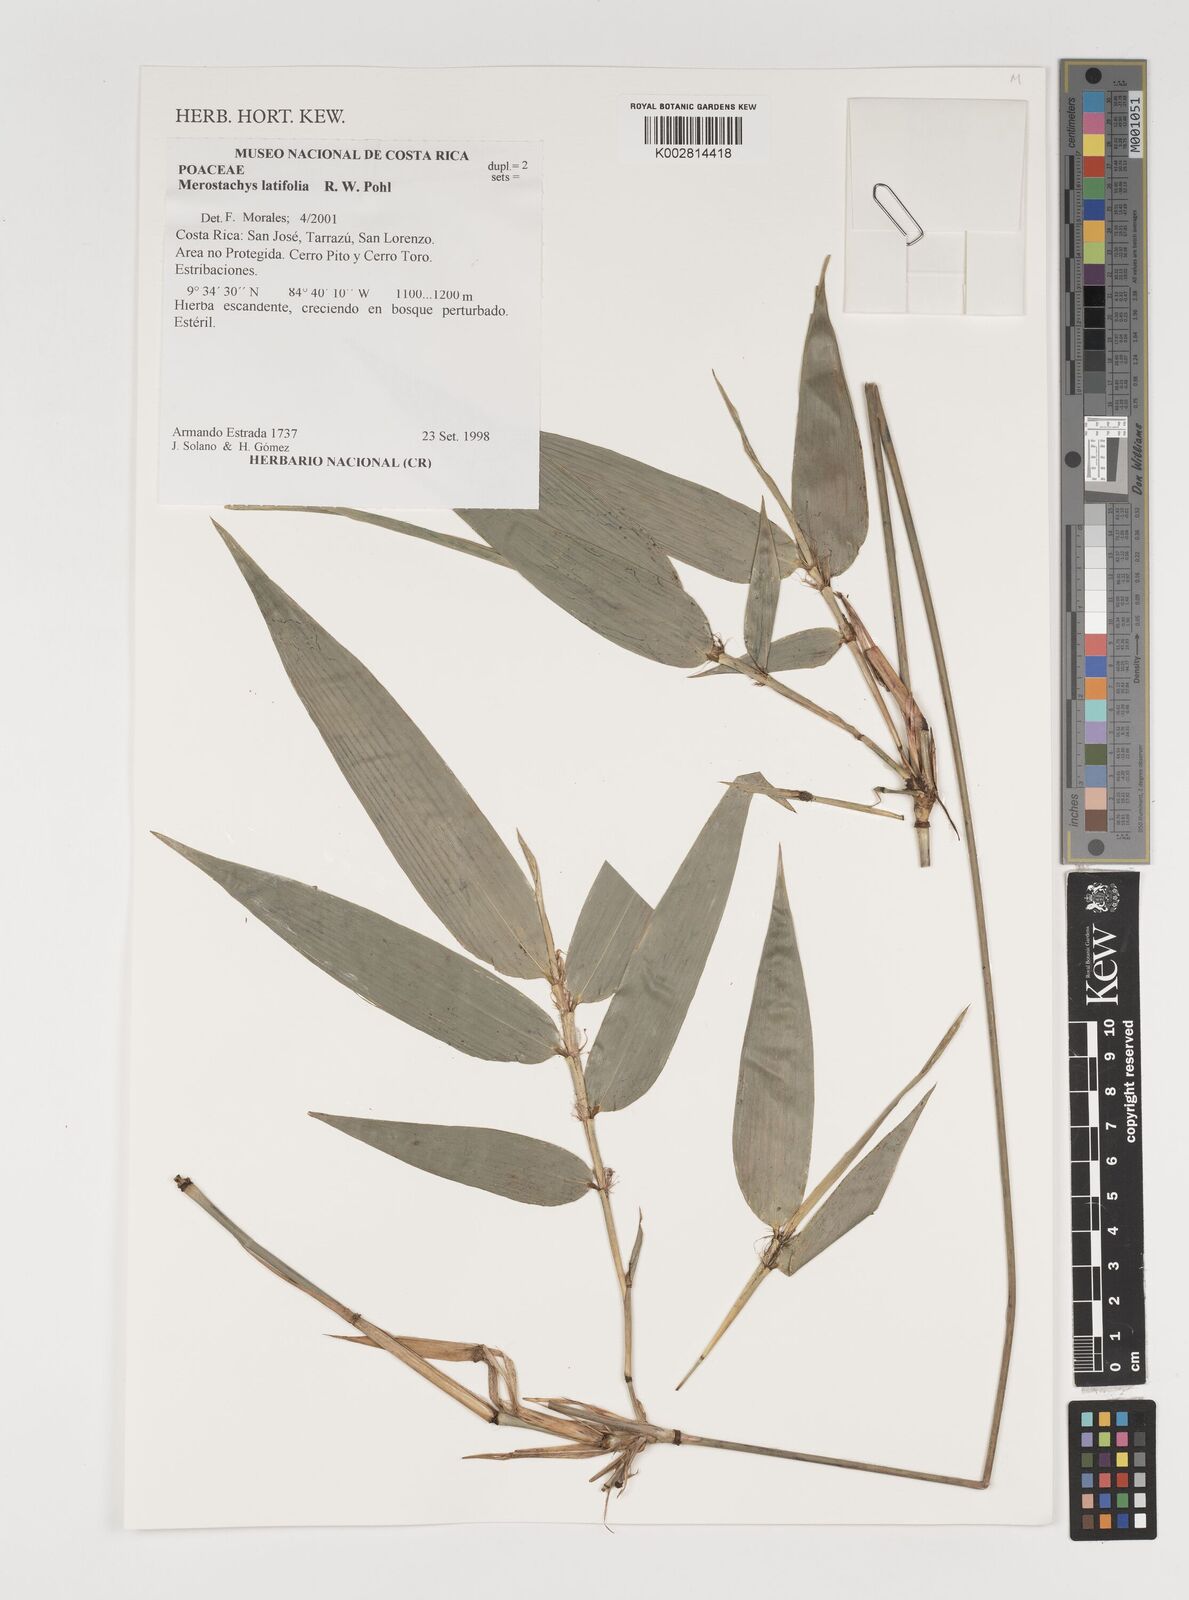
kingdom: Plantae
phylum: Tracheophyta
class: Liliopsida
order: Poales
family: Poaceae
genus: Merostachys
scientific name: Merostachys latifolia
